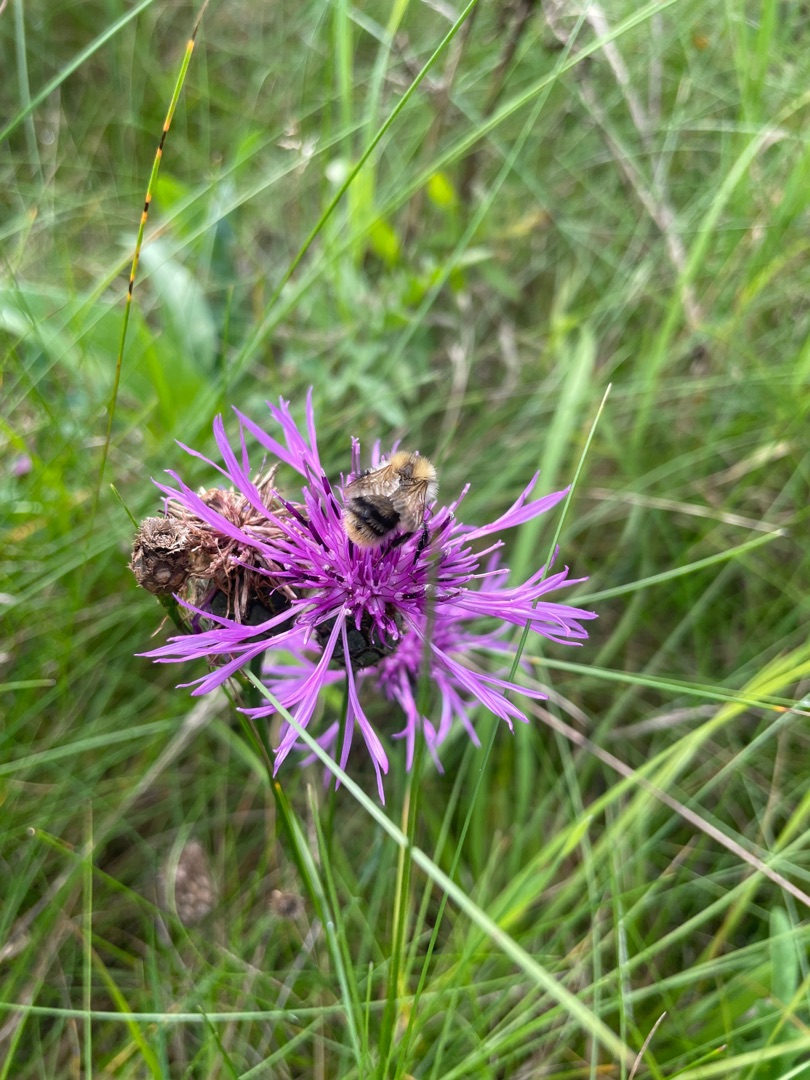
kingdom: Plantae
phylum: Tracheophyta
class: Magnoliopsida
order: Asterales
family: Asteraceae
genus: Centaurea
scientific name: Centaurea scabiosa
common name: Stor knopurt
